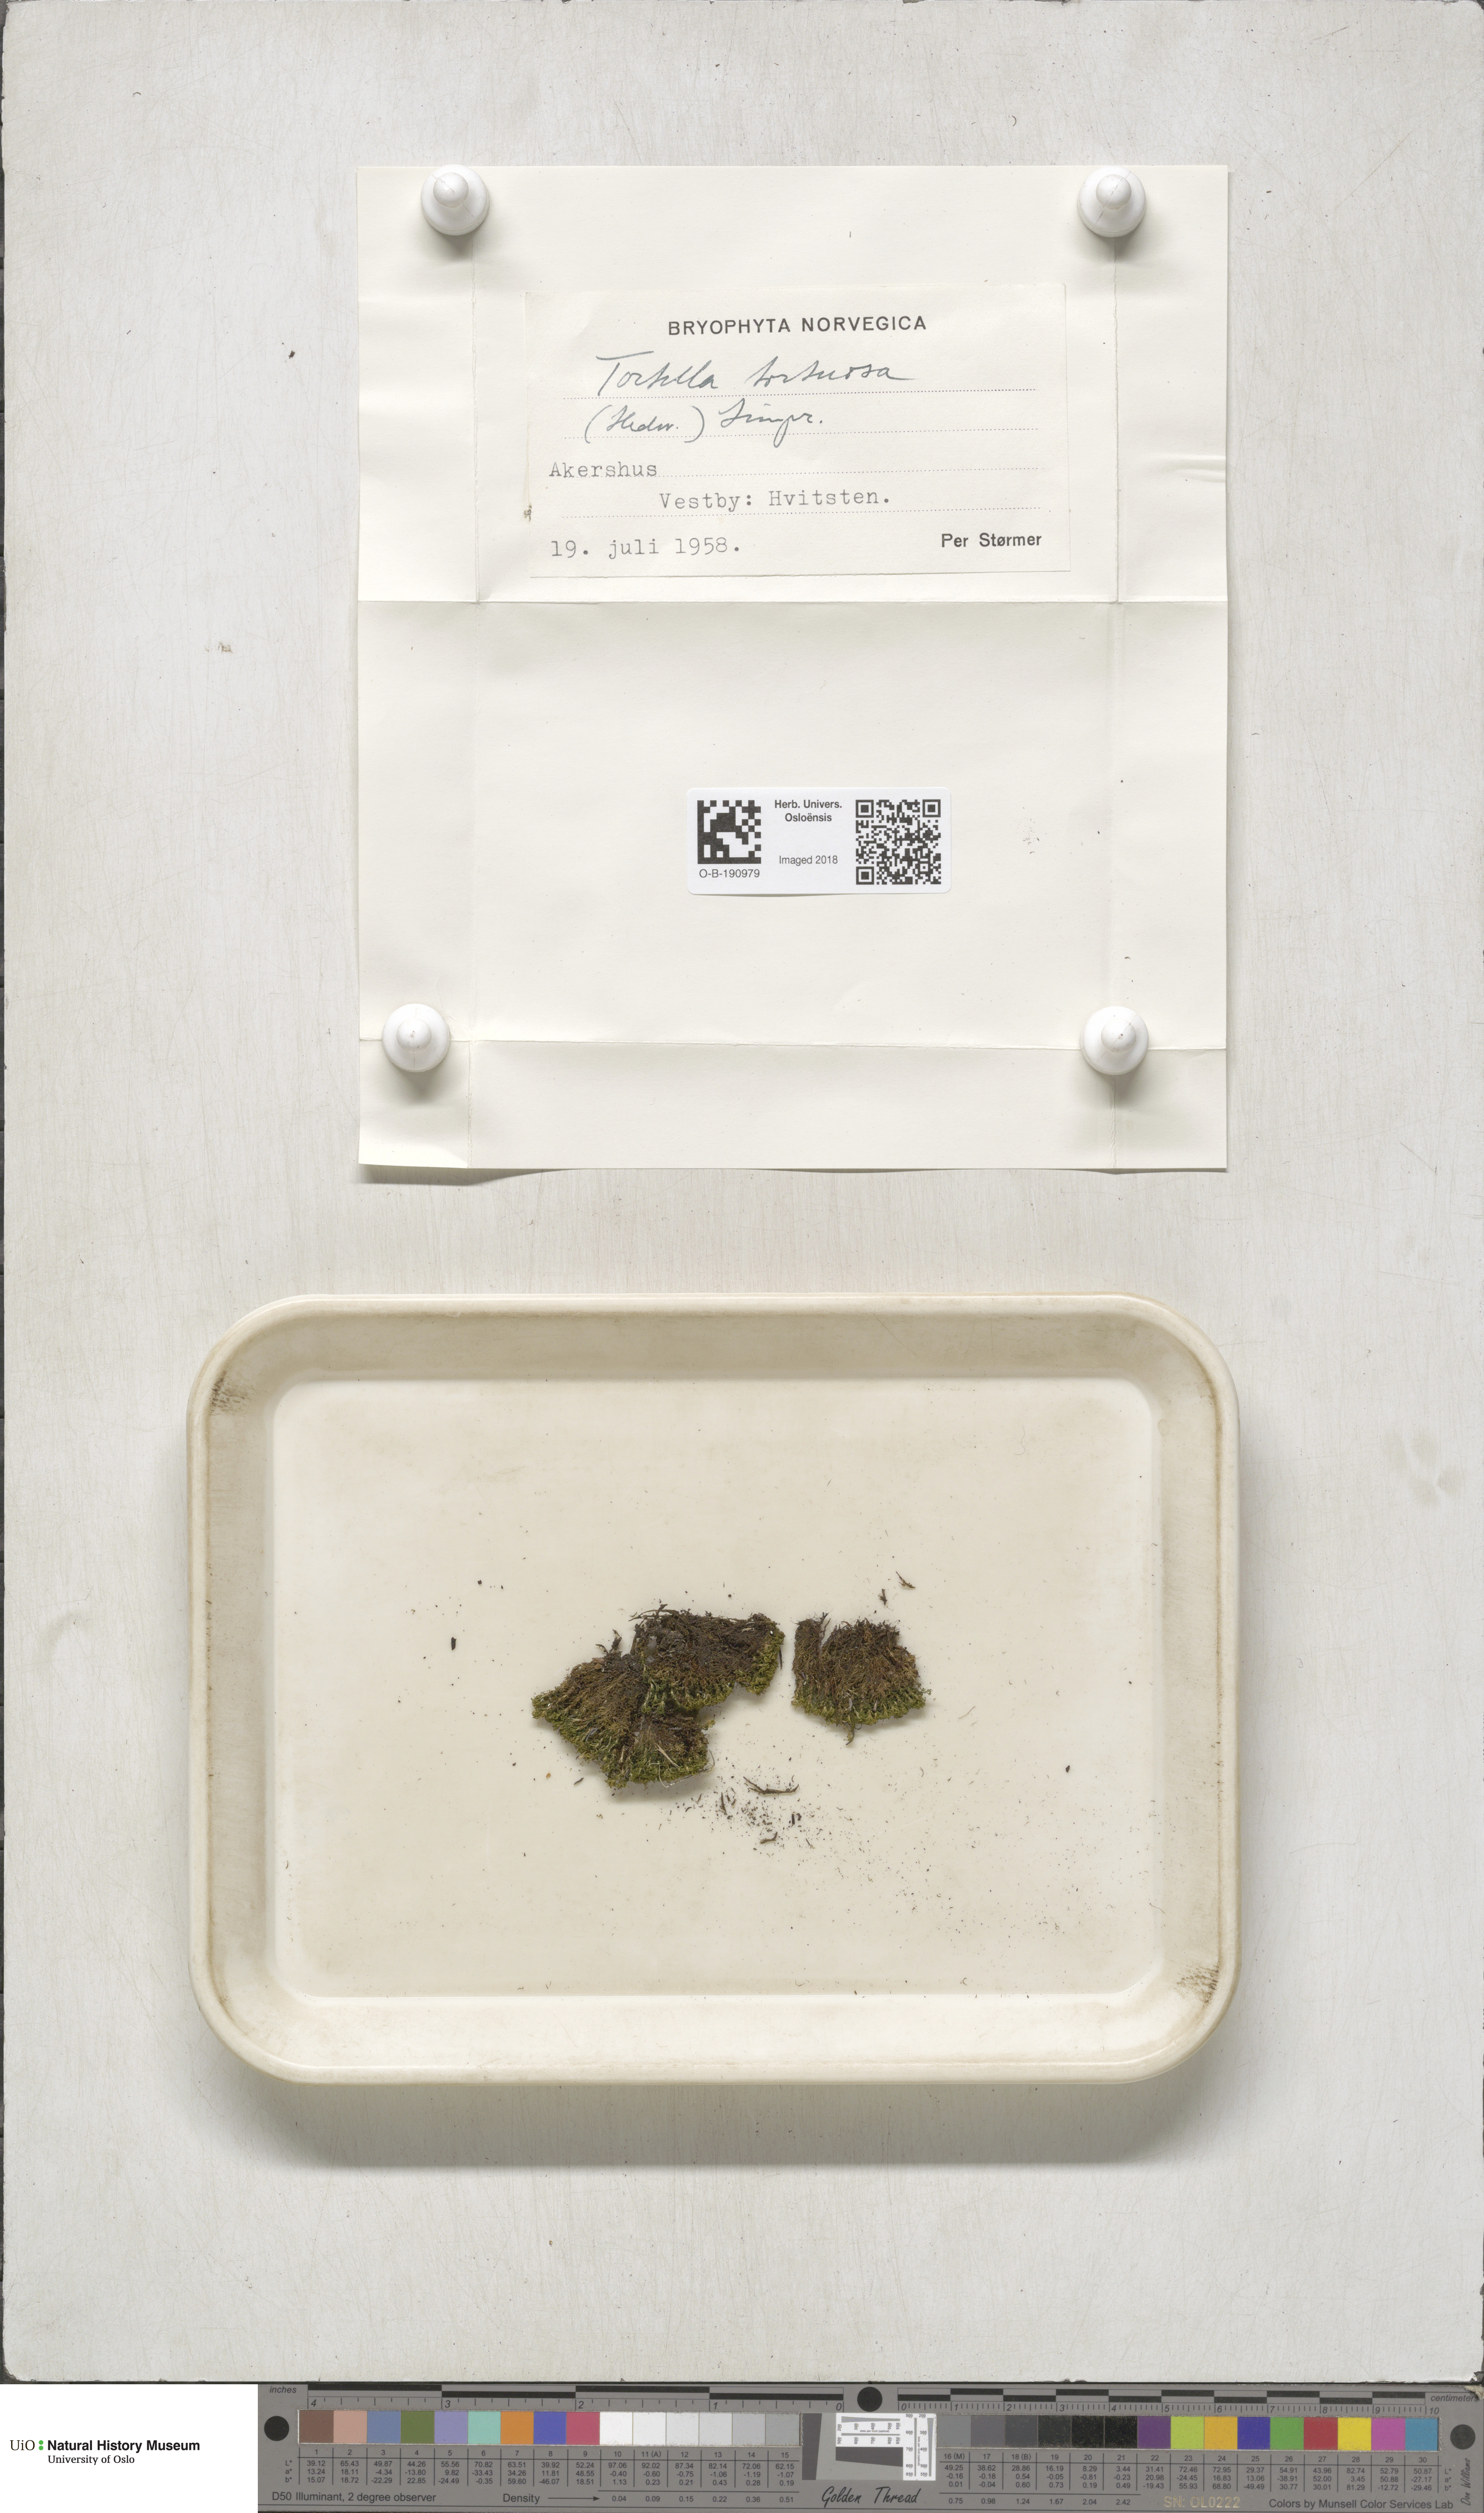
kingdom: Plantae
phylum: Bryophyta
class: Bryopsida
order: Pottiales
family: Pottiaceae
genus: Tortella
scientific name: Tortella tortuosa
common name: Frizzled crisp moss
